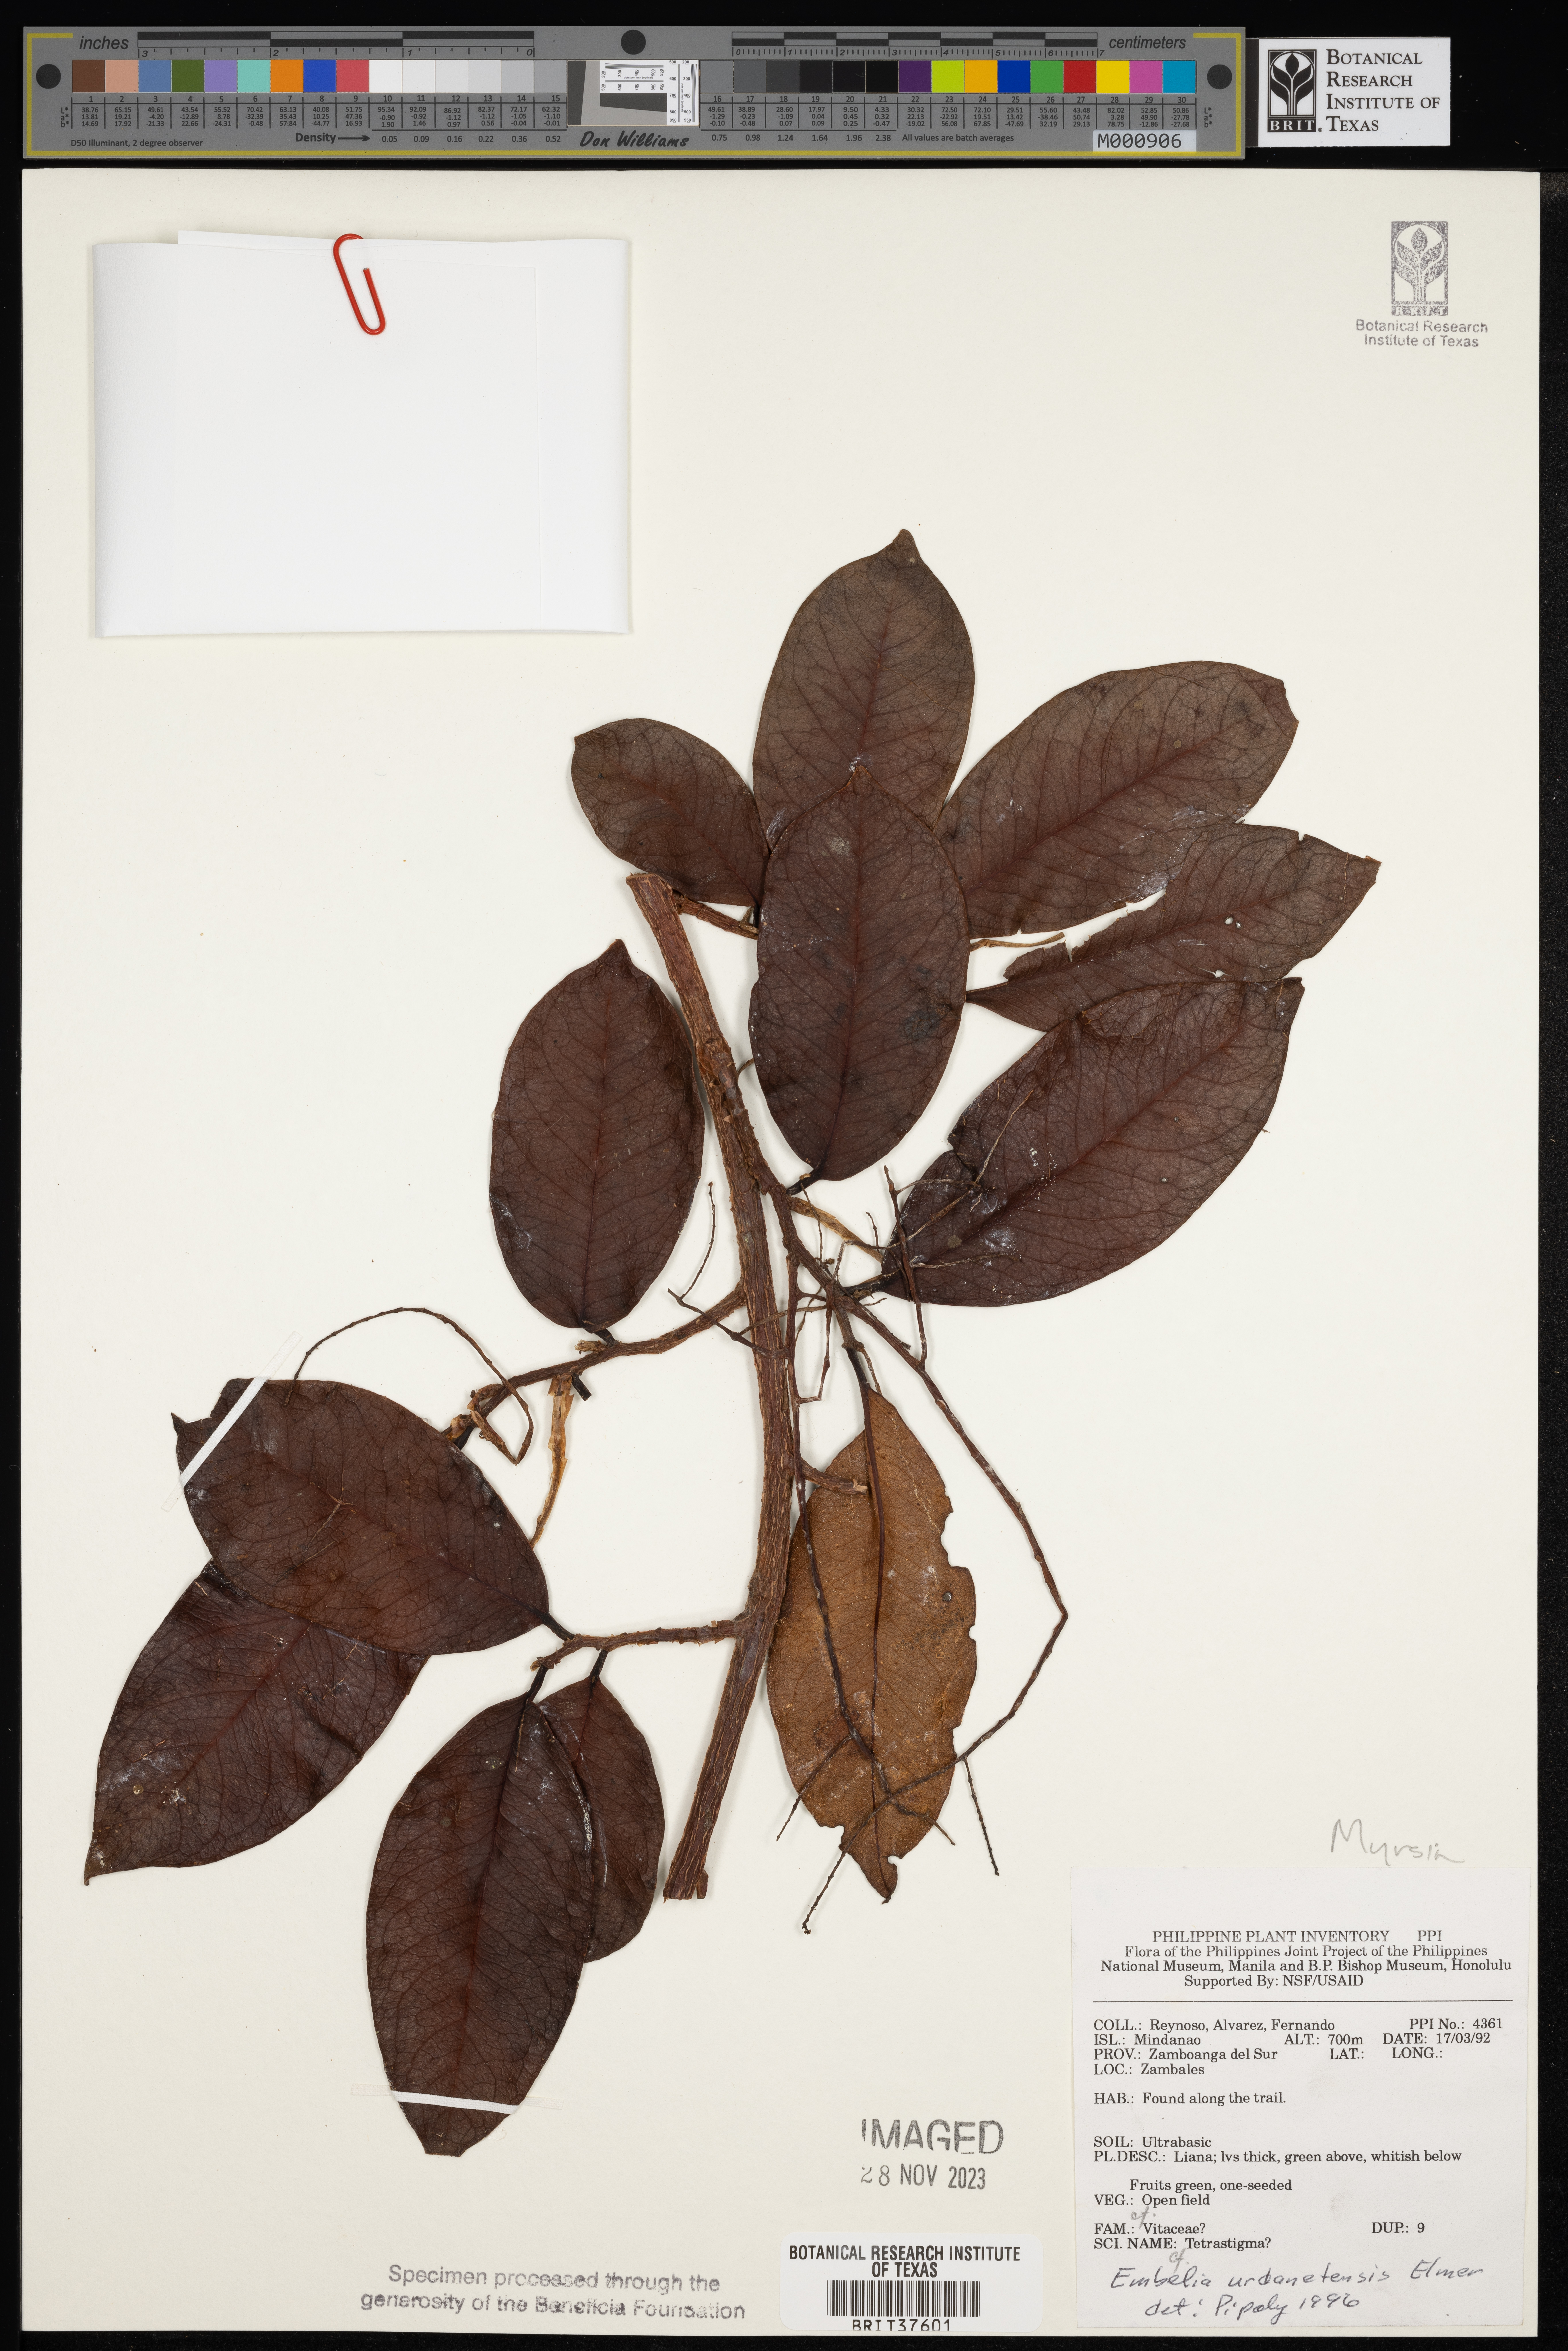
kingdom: Plantae
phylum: Tracheophyta
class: Magnoliopsida
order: Ericales
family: Primulaceae
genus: Embelia
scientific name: Embelia whitfordii
